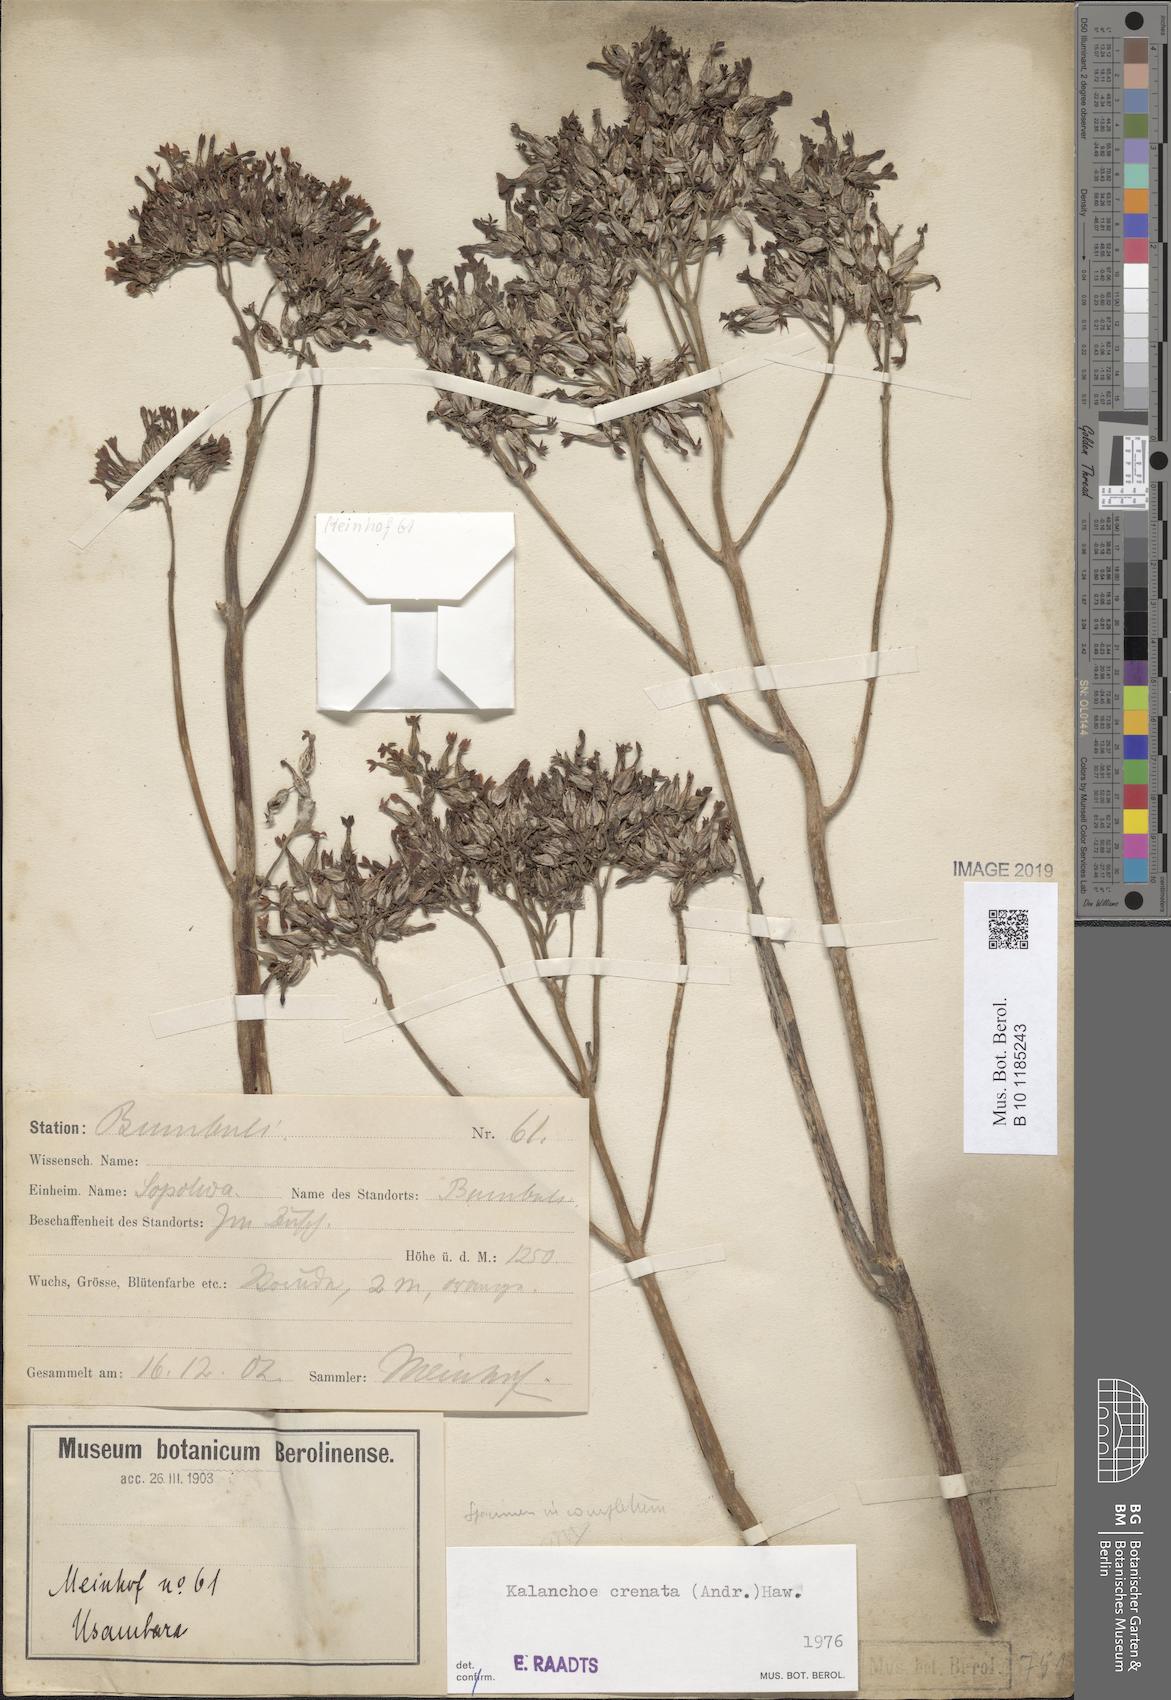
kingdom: Plantae
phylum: Tracheophyta
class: Magnoliopsida
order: Saxifragales
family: Crassulaceae
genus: Kalanchoe
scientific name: Kalanchoe crenata
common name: Neverdie
